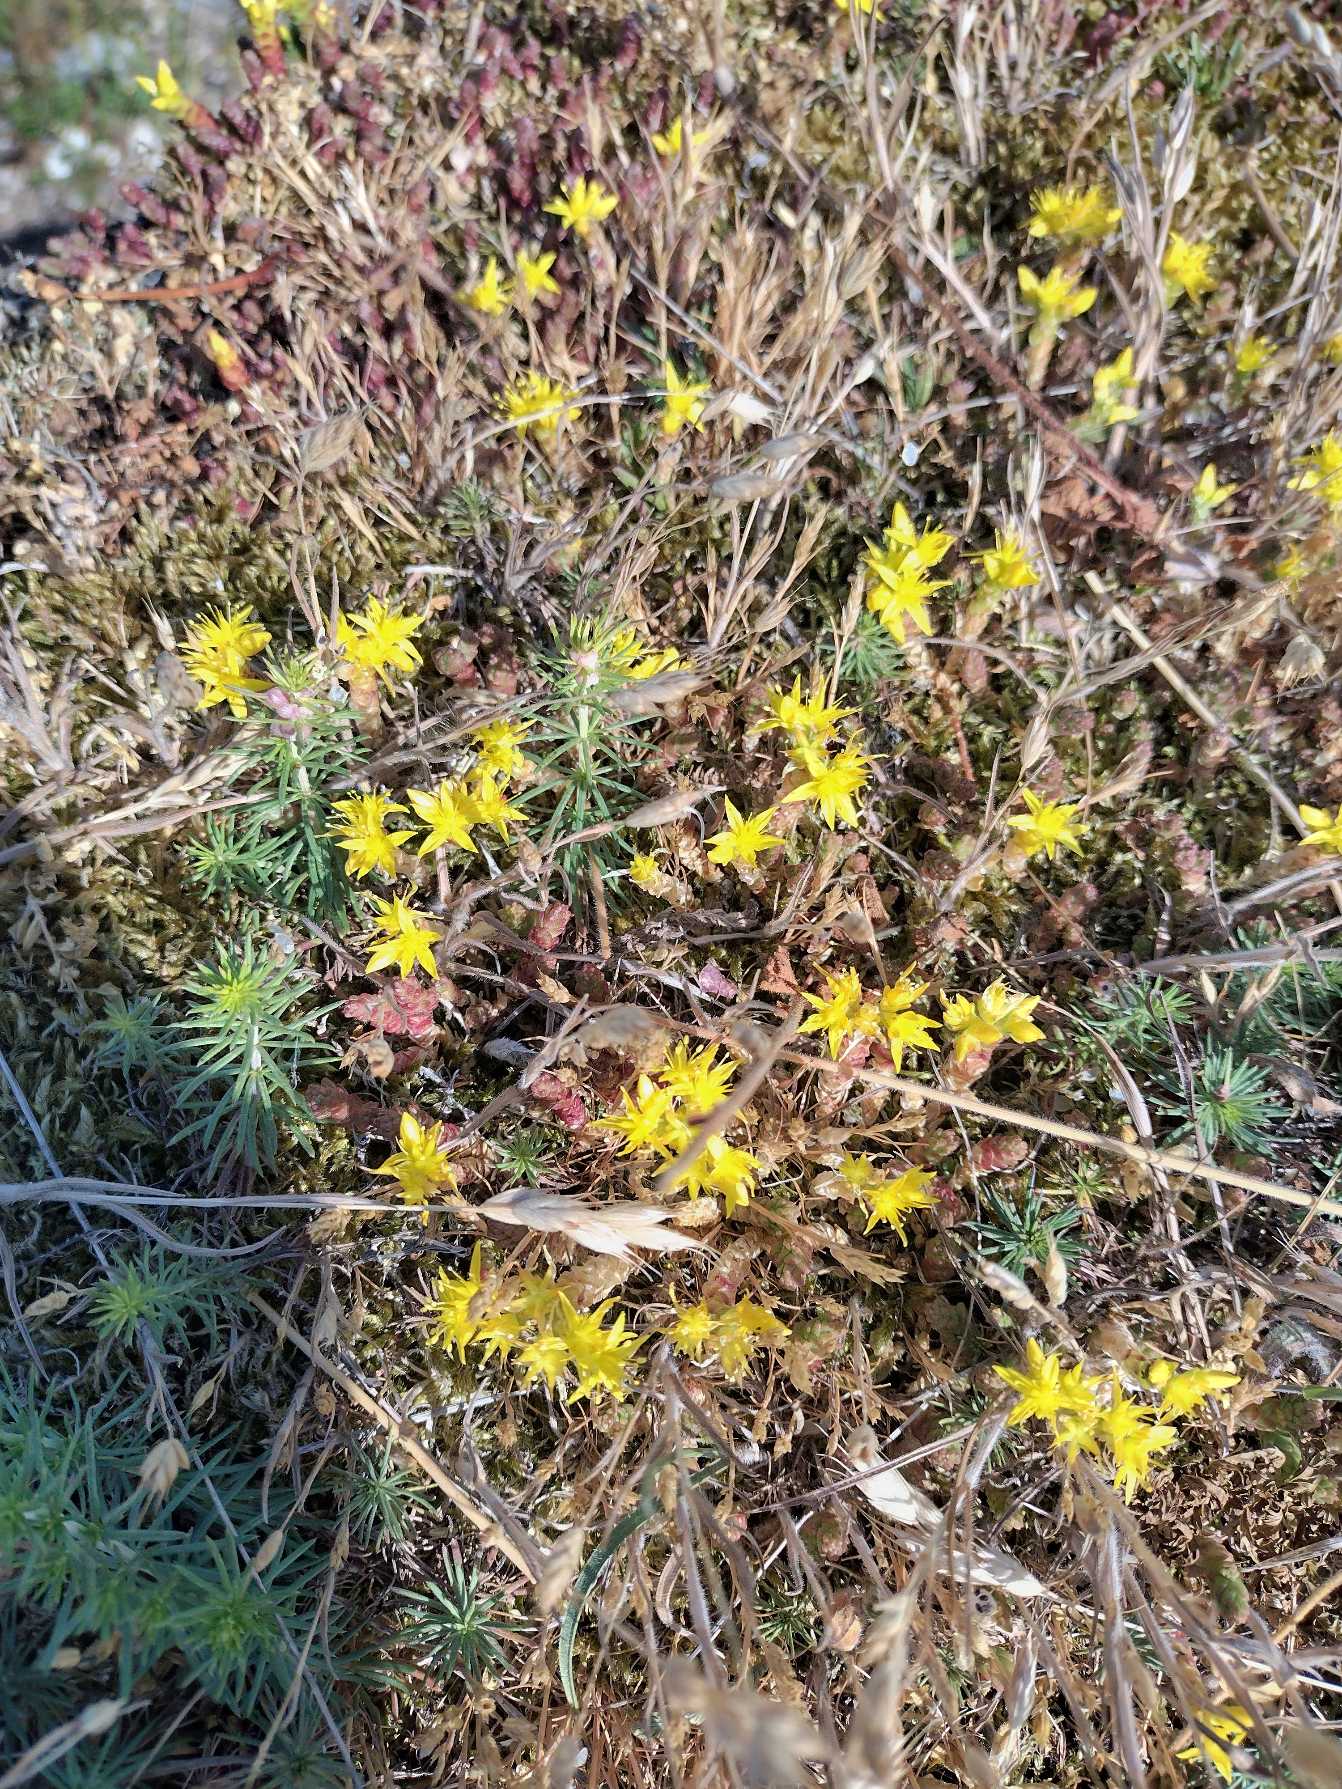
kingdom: Plantae
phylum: Tracheophyta
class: Magnoliopsida
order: Saxifragales
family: Crassulaceae
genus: Sedum
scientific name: Sedum acre
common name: Bidende stenurt
